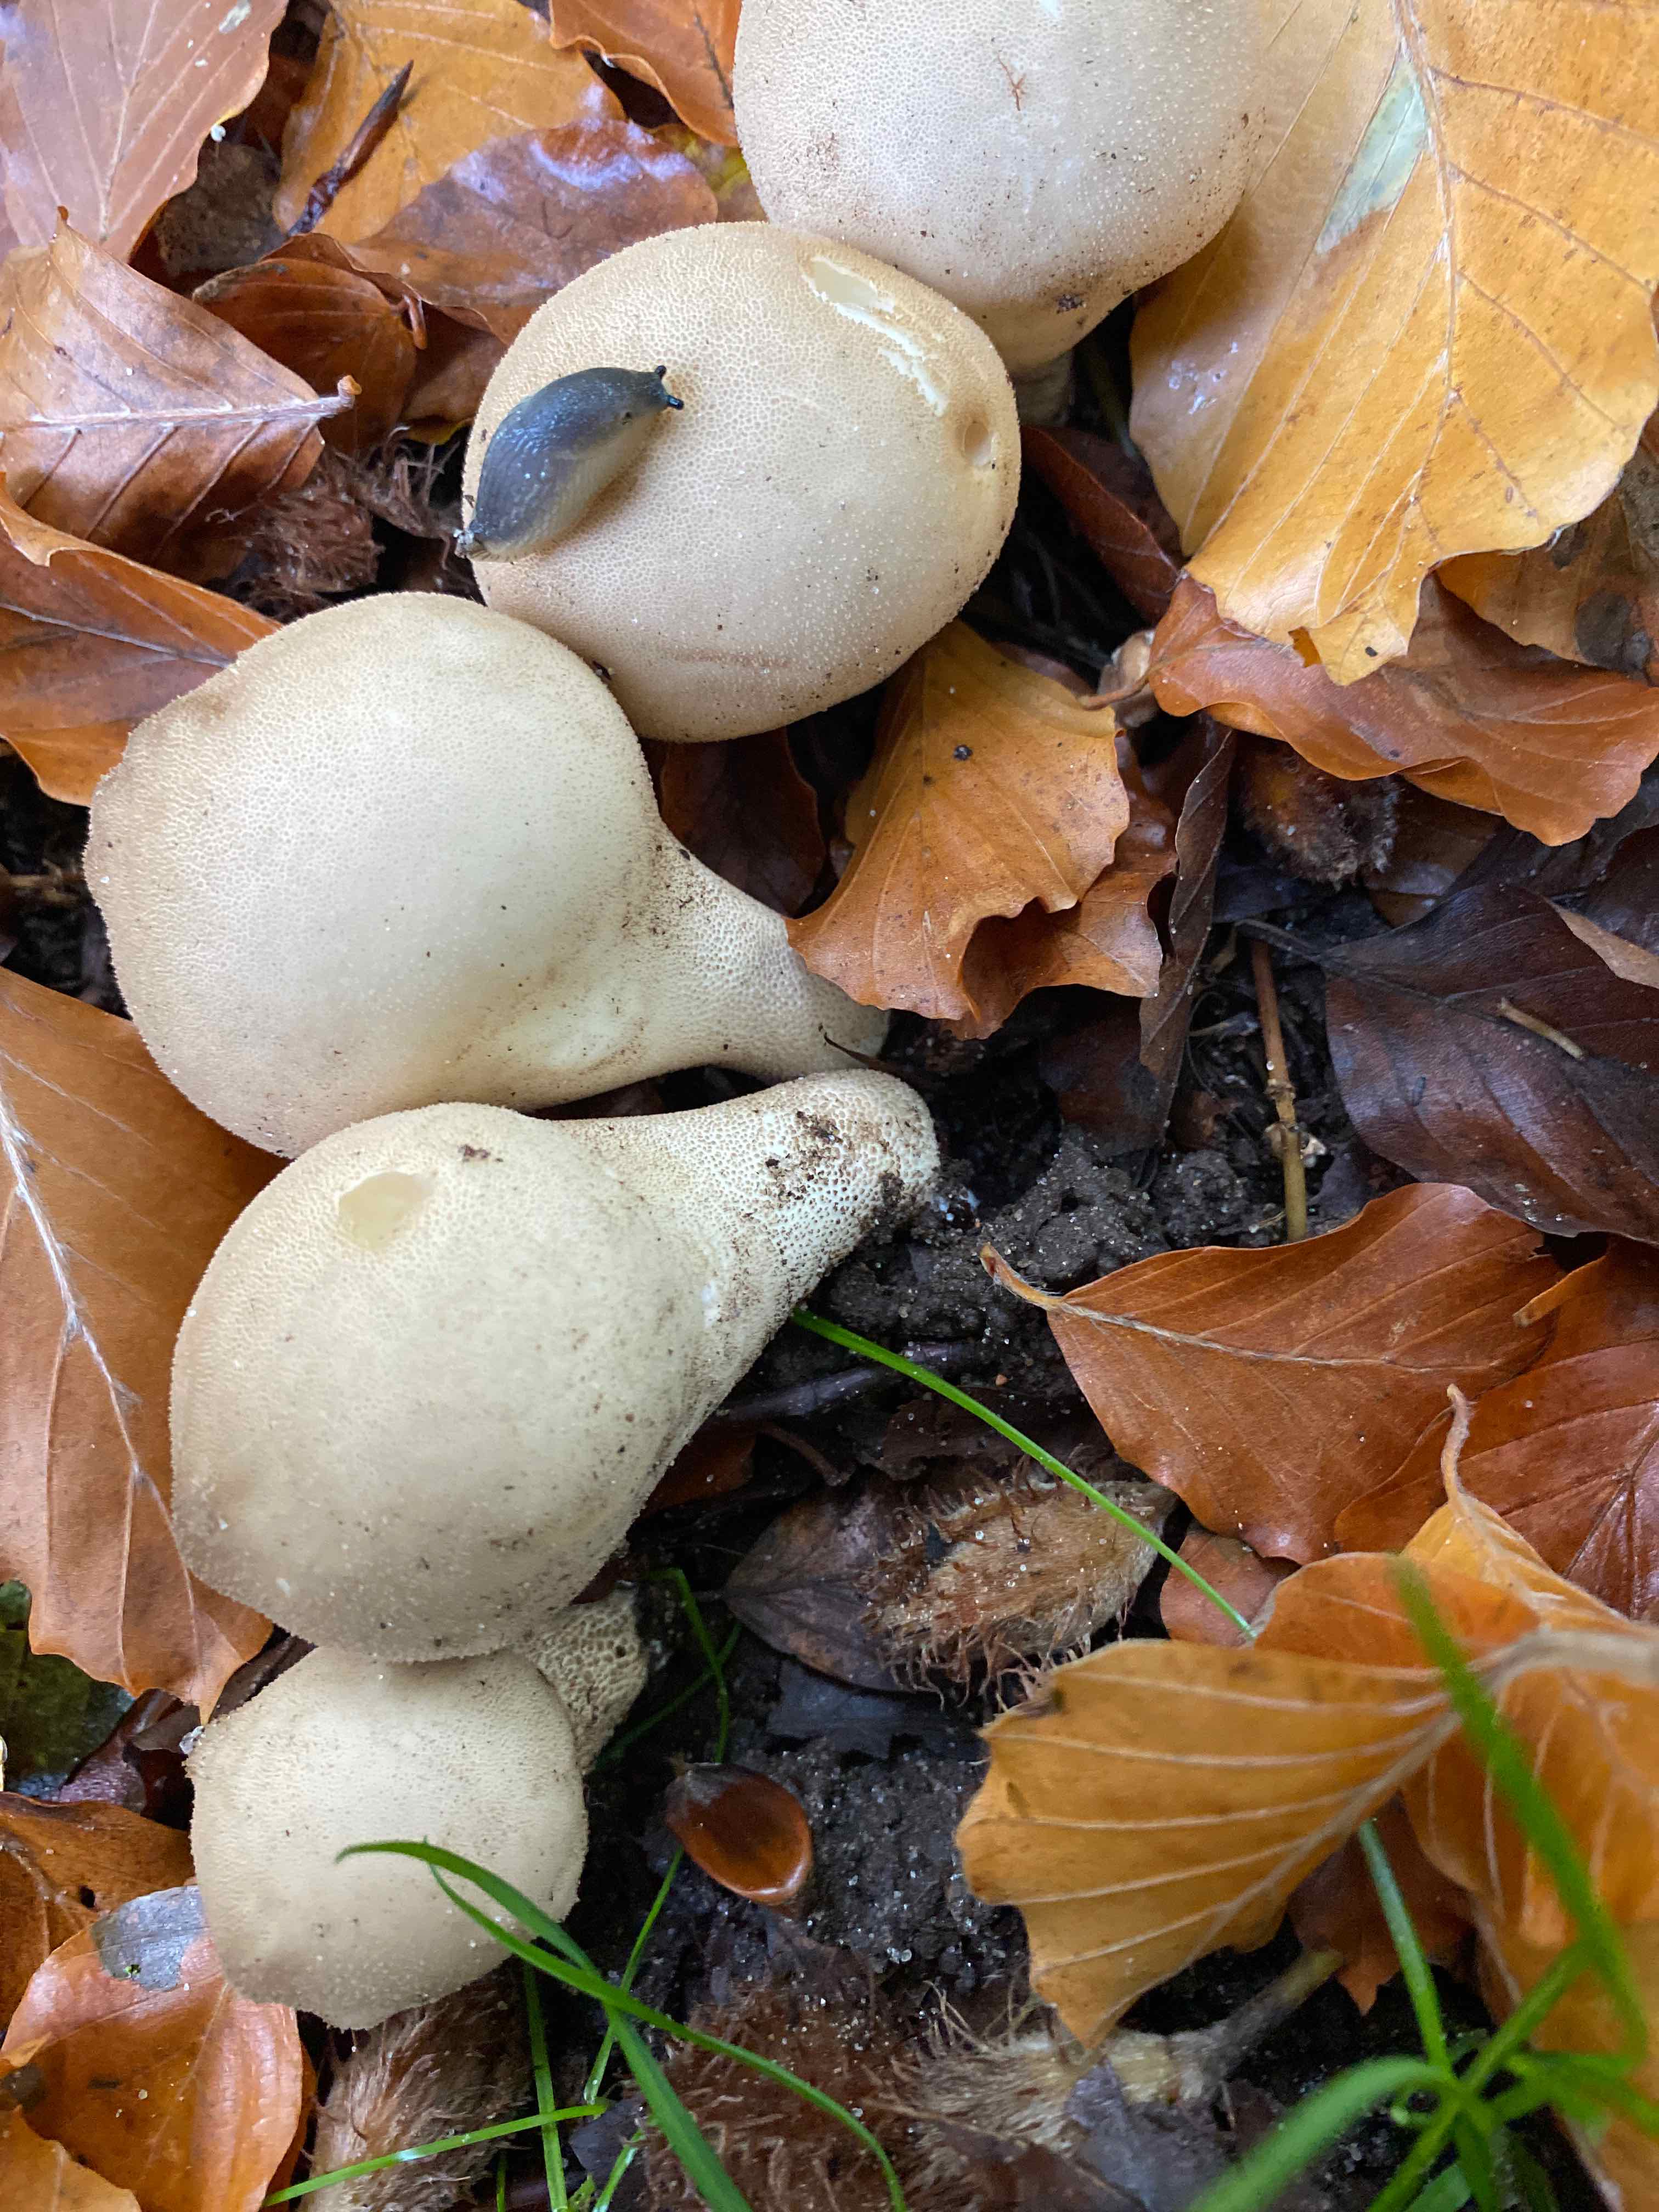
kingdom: Fungi
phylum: Basidiomycota
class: Agaricomycetes
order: Agaricales
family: Lycoperdaceae
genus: Apioperdon
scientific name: Apioperdon pyriforme
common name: pære-støvbold
